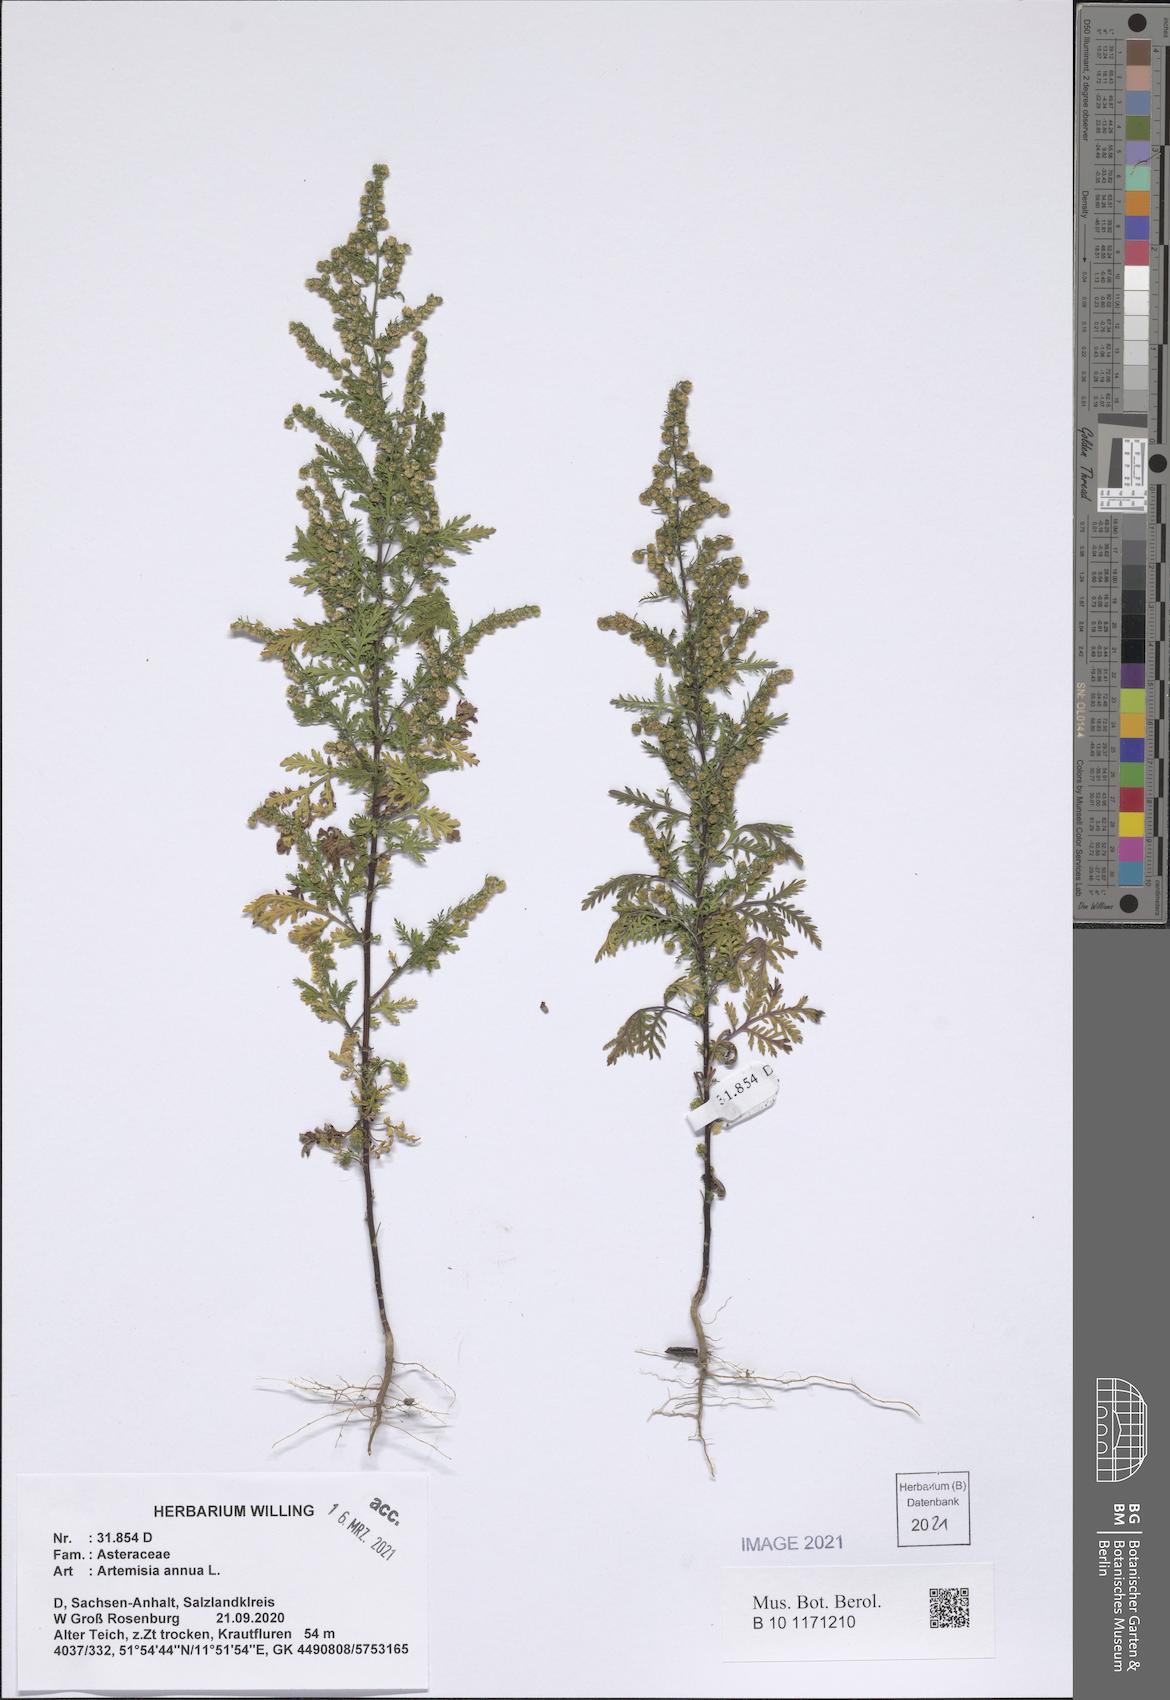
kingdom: Plantae
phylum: Tracheophyta
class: Magnoliopsida
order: Asterales
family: Asteraceae
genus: Artemisia
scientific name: Artemisia annua
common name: Sweet sagewort
